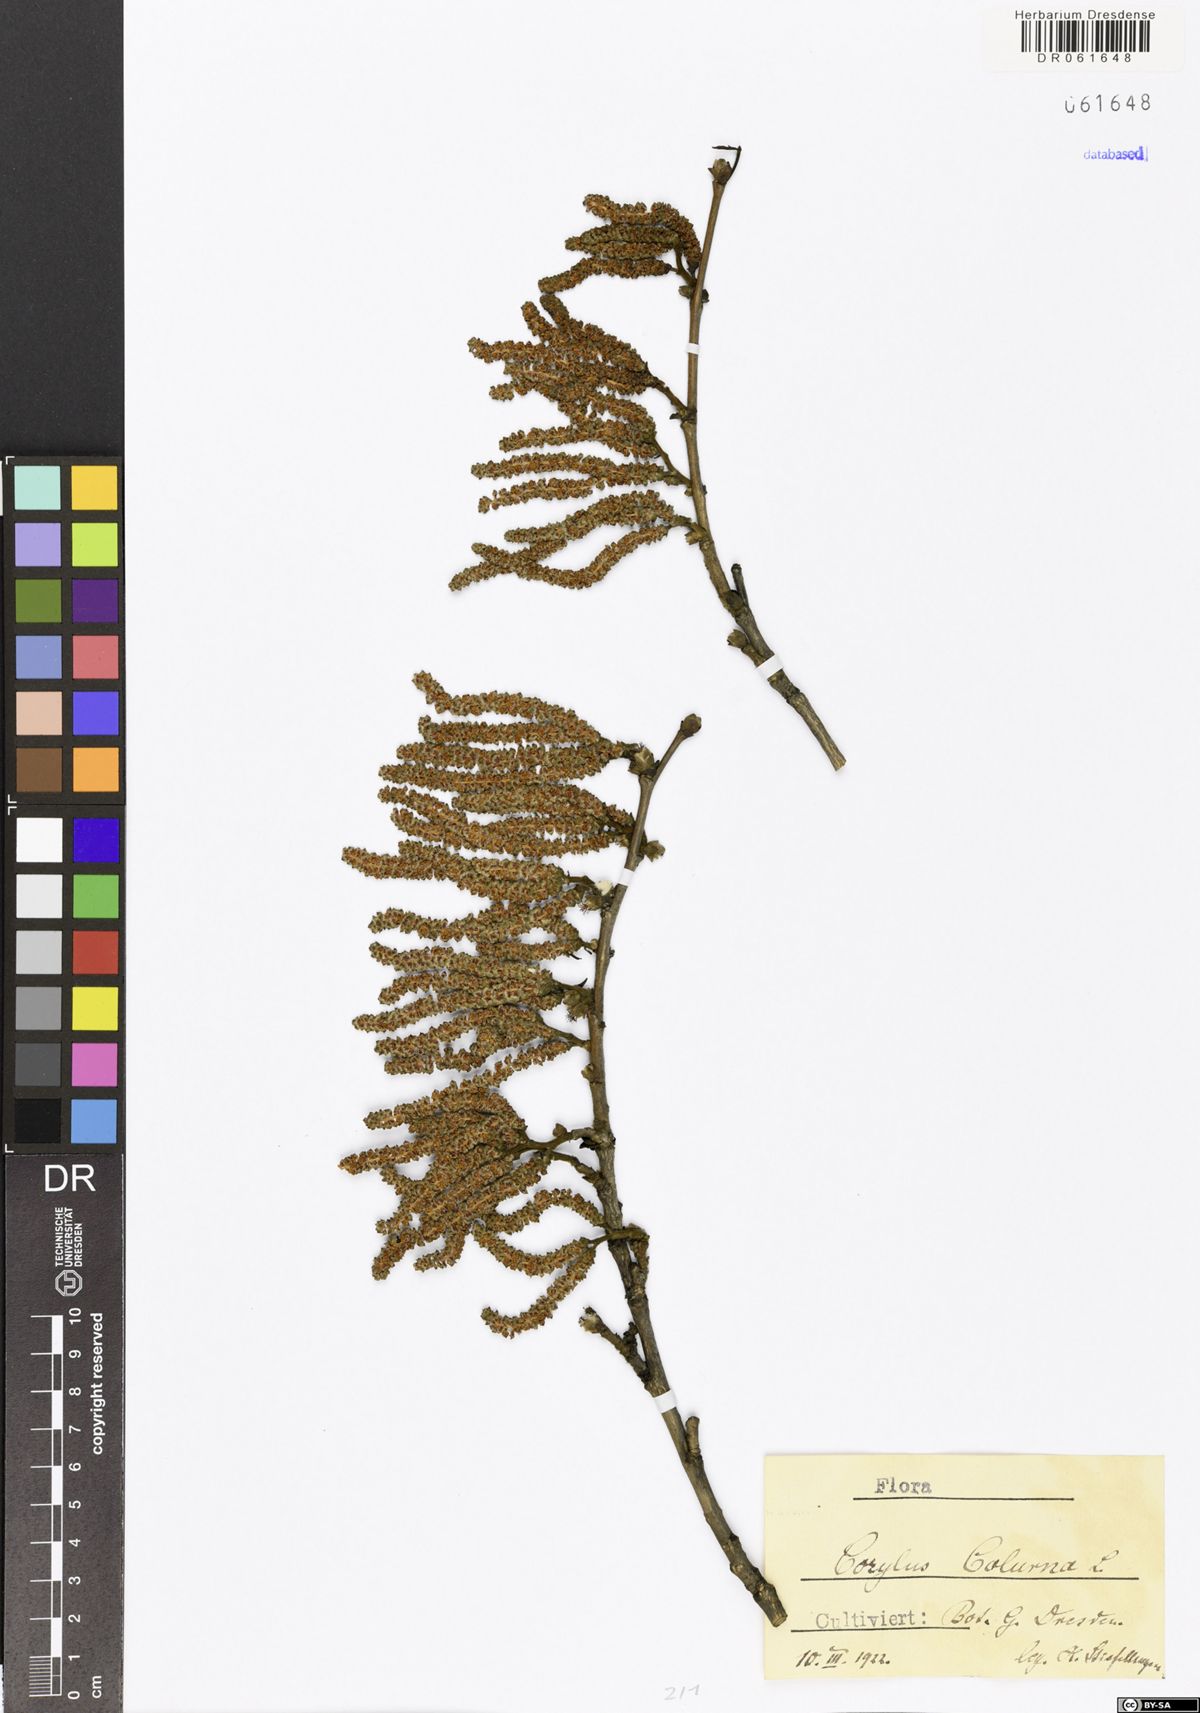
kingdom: Plantae
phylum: Tracheophyta
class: Magnoliopsida
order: Fagales
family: Betulaceae
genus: Corylus
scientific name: Corylus colurna
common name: Turkish hazel
